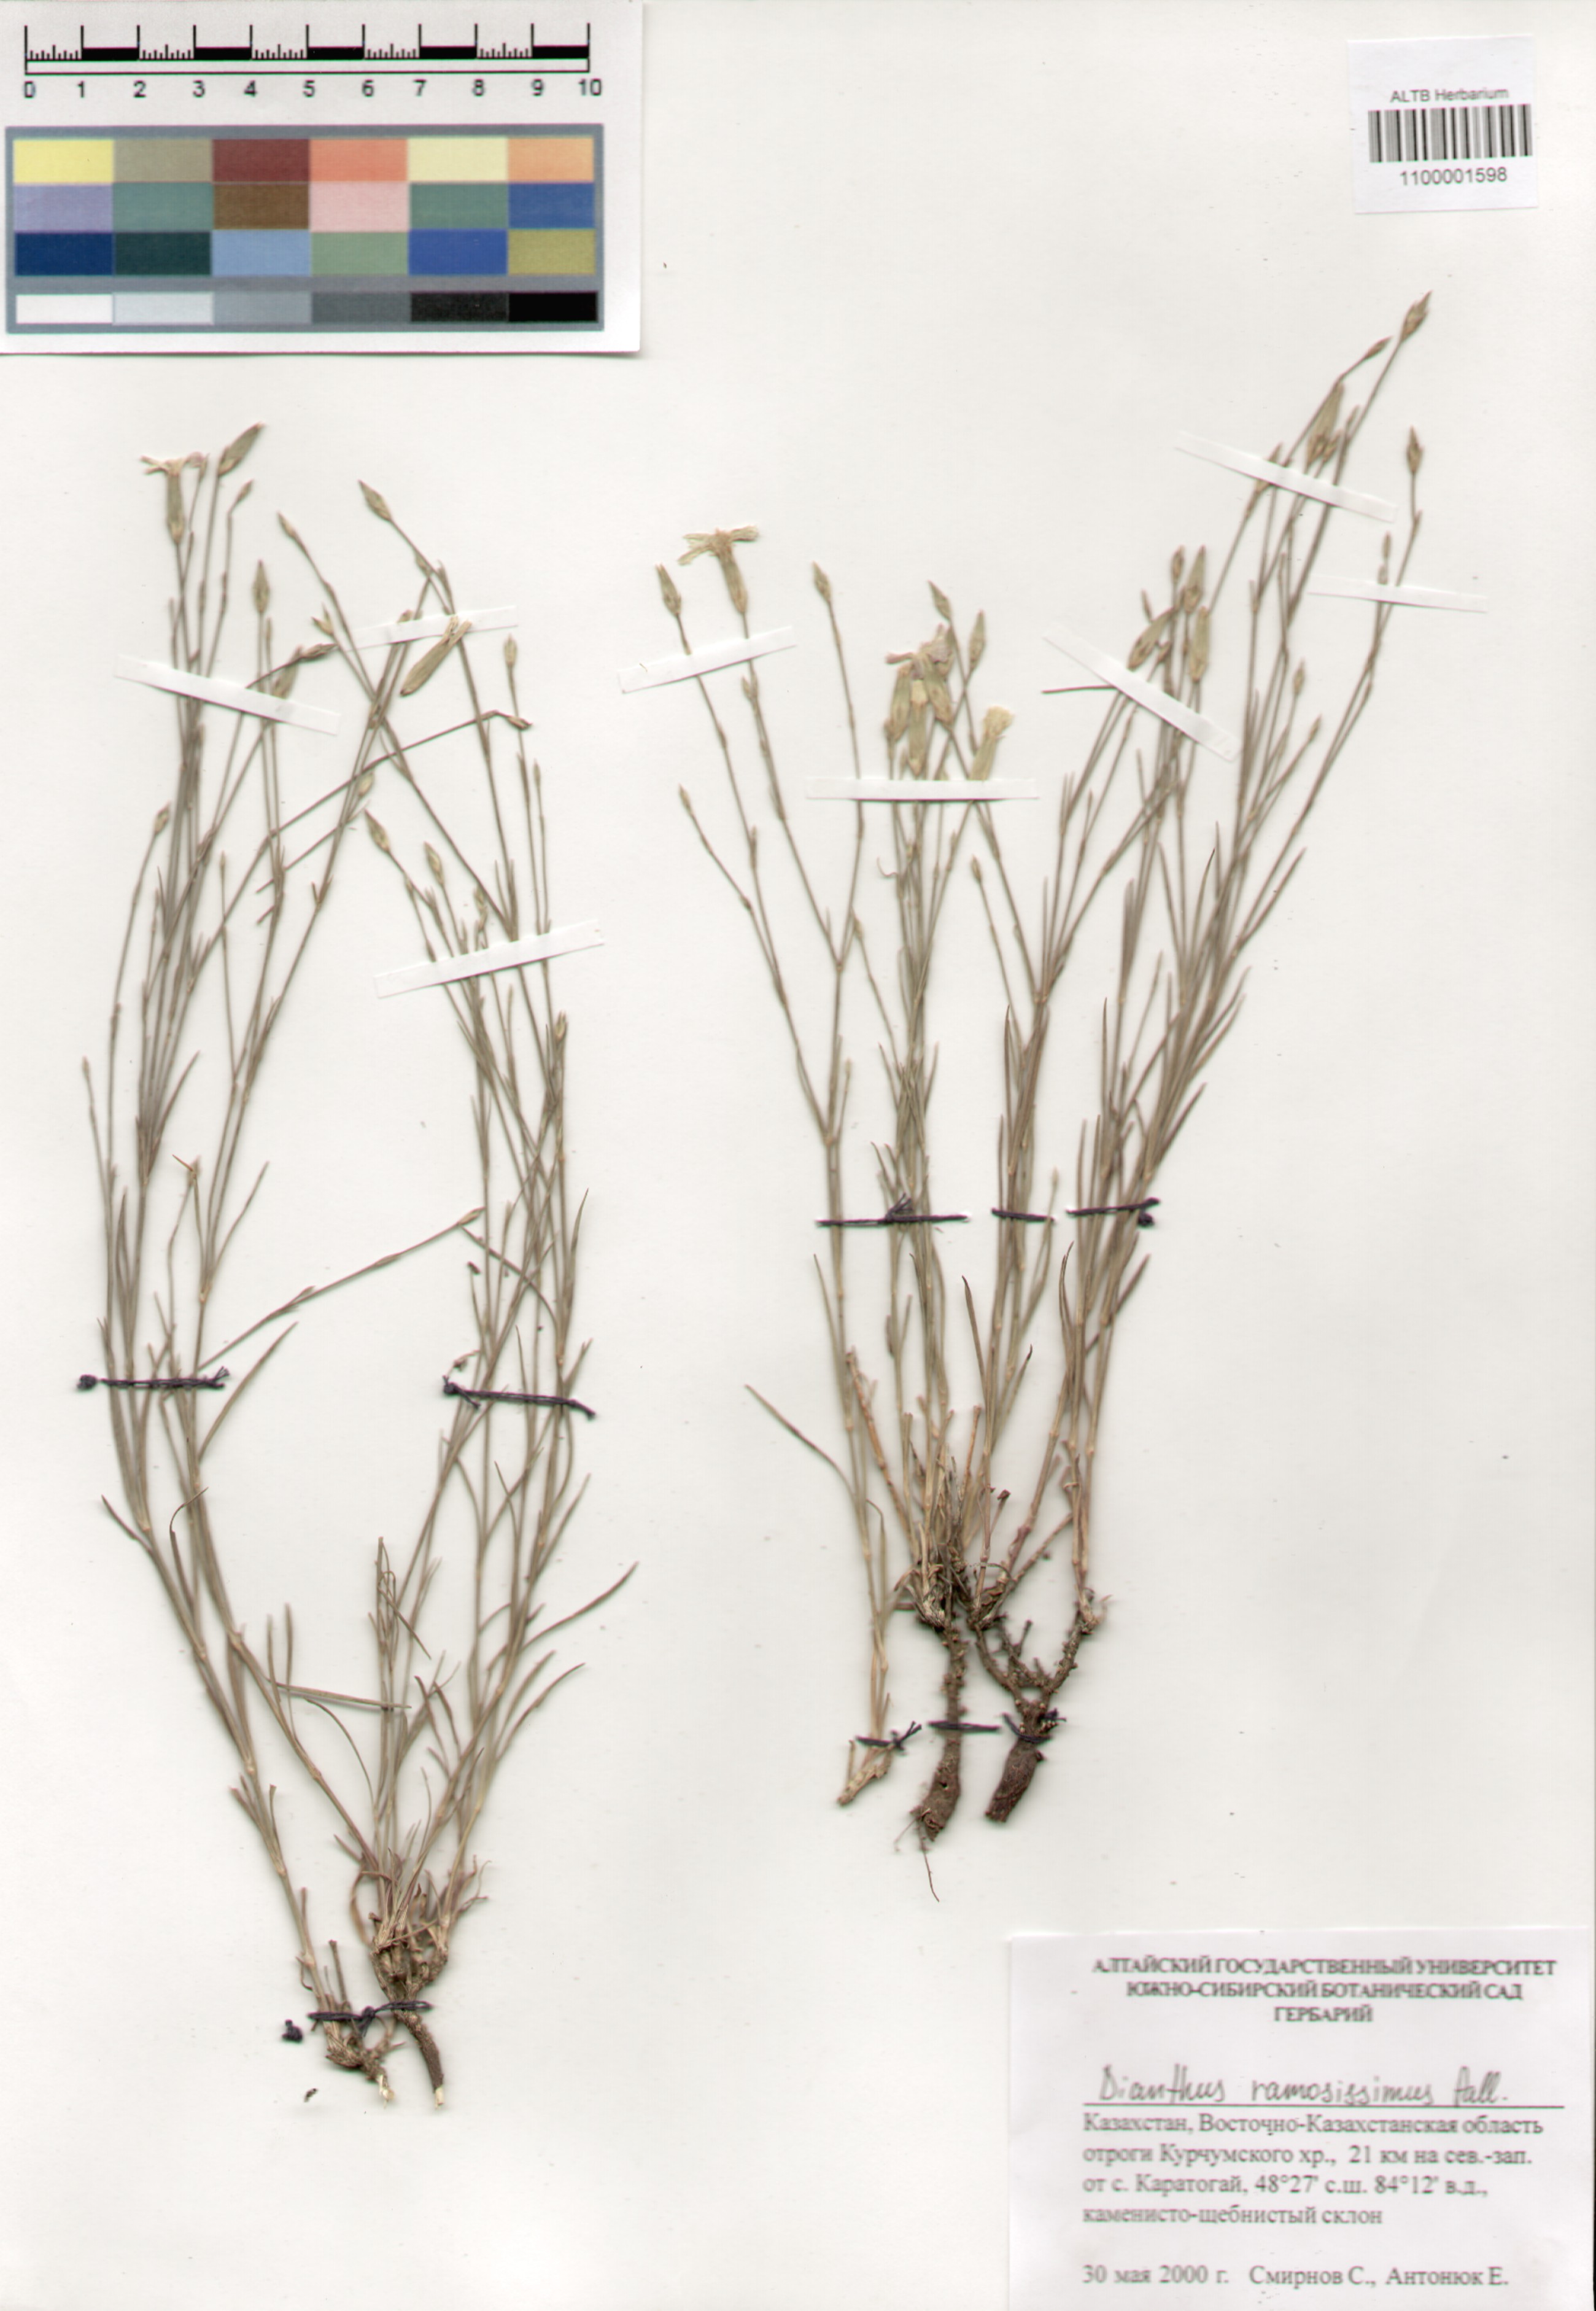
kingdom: Plantae
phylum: Tracheophyta
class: Magnoliopsida
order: Caryophyllales
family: Caryophyllaceae
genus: Dianthus
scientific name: Dianthus ramosissimus
